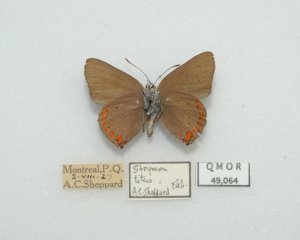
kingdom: Animalia
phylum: Arthropoda
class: Insecta
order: Lepidoptera
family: Lycaenidae
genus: Harkenclenus
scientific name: Harkenclenus titus
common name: Coral Hairstreak
